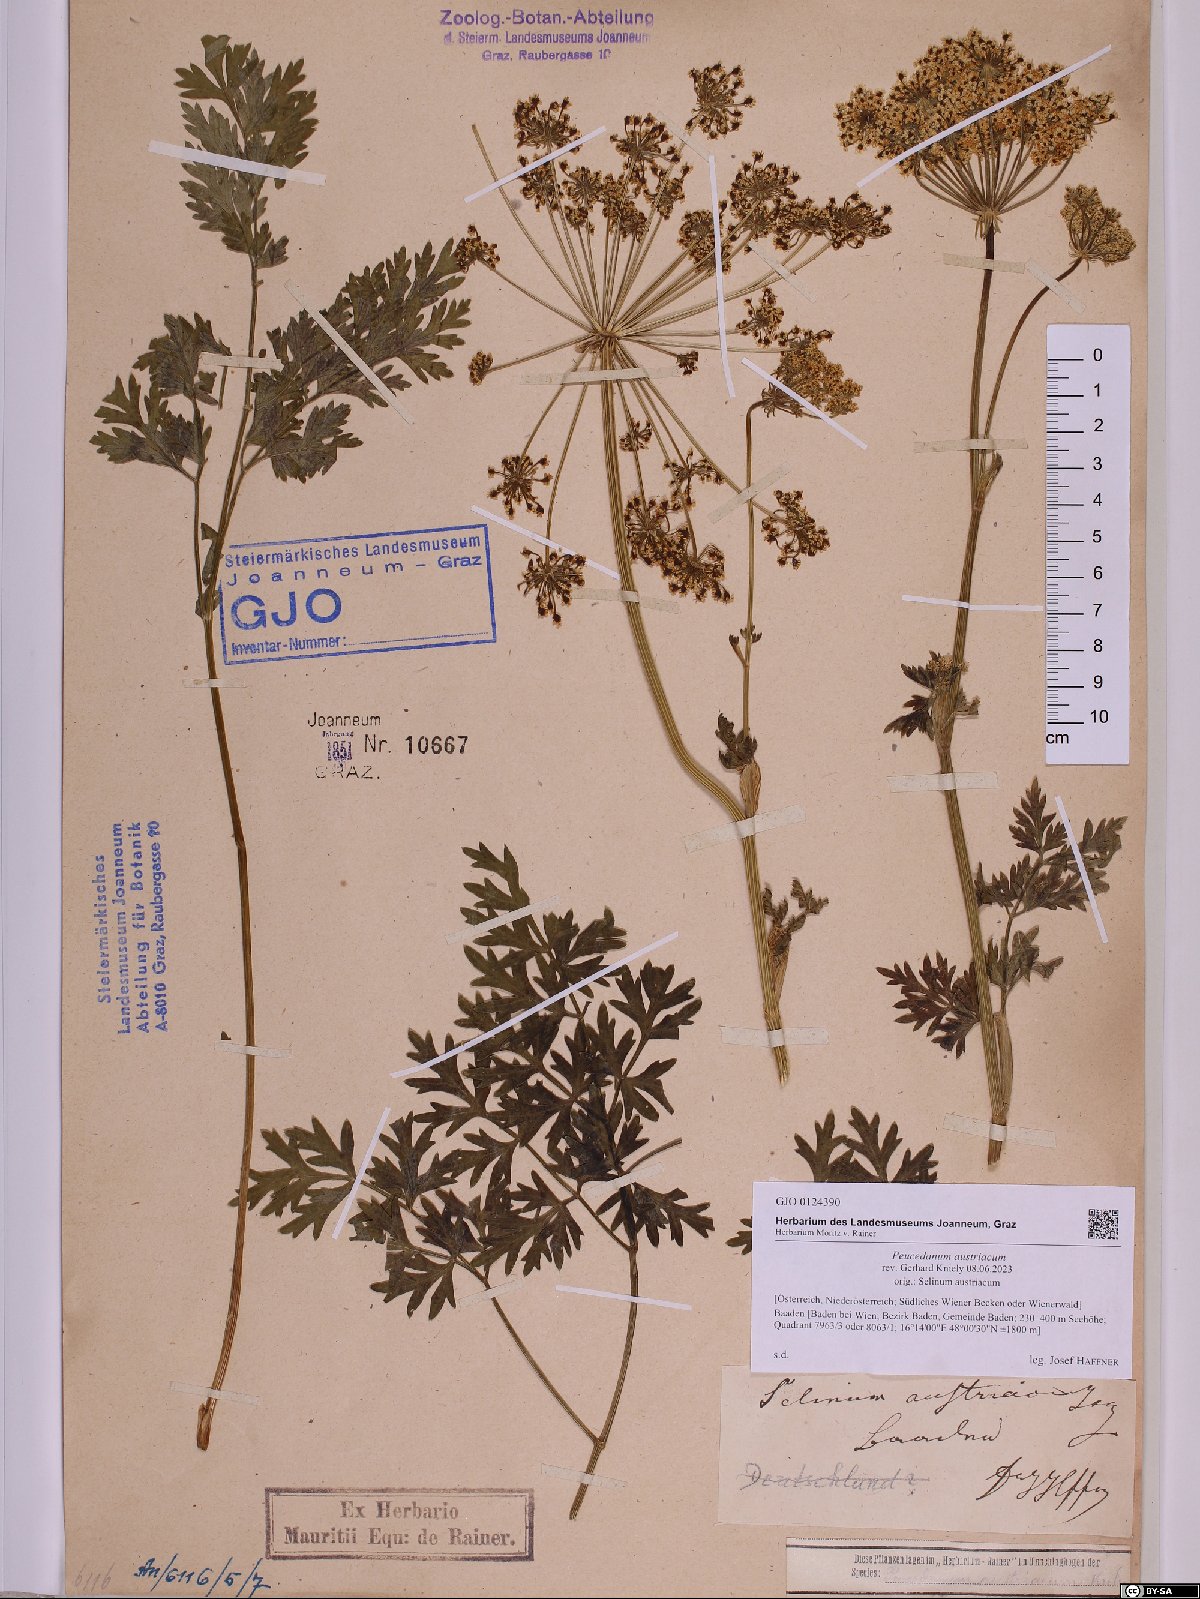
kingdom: Plantae
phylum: Tracheophyta
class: Magnoliopsida
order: Apiales
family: Apiaceae
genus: Peucedanum
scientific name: Peucedanum austriacum
